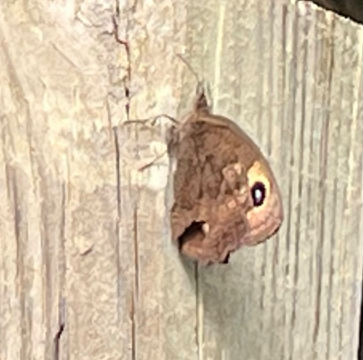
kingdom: Animalia
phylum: Arthropoda
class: Insecta
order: Lepidoptera
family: Nymphalidae
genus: Cercyonis
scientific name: Cercyonis pegala
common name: Common Wood-Nymph
